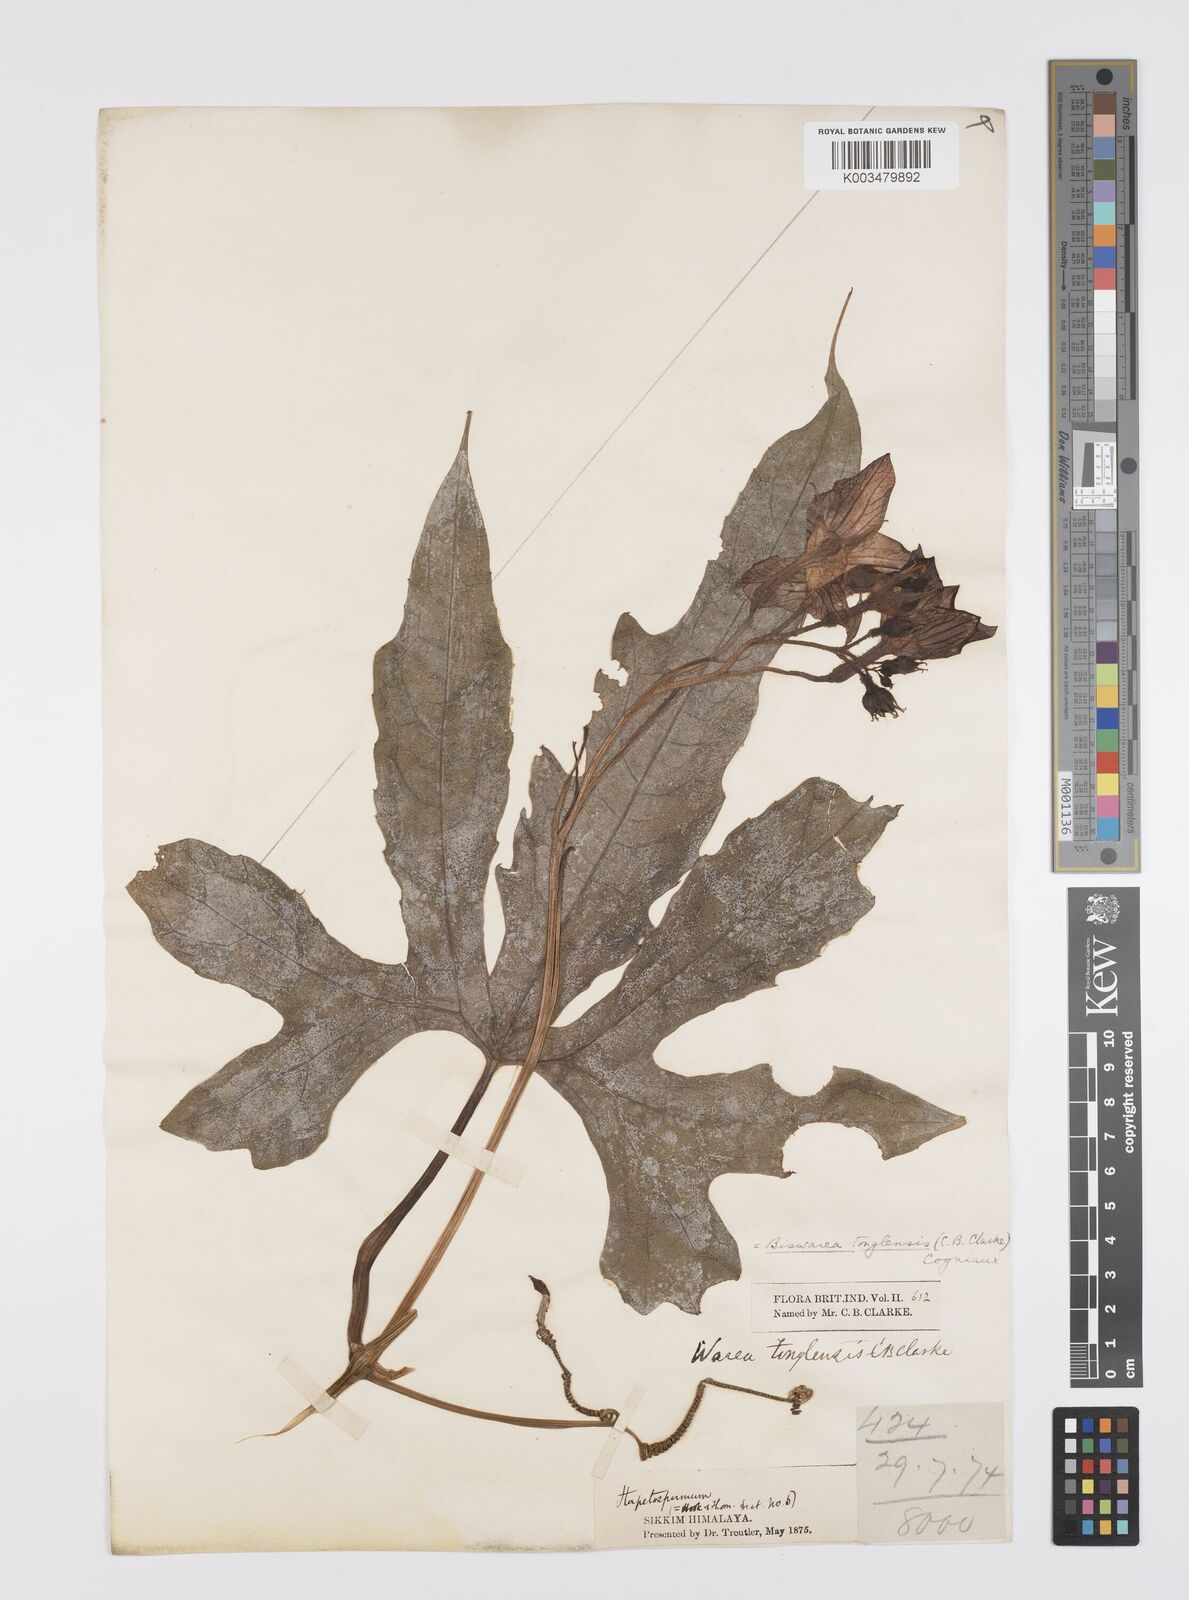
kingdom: Plantae
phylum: Tracheophyta
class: Magnoliopsida
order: Cucurbitales
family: Cucurbitaceae
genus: Benincasa
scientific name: Benincasa
